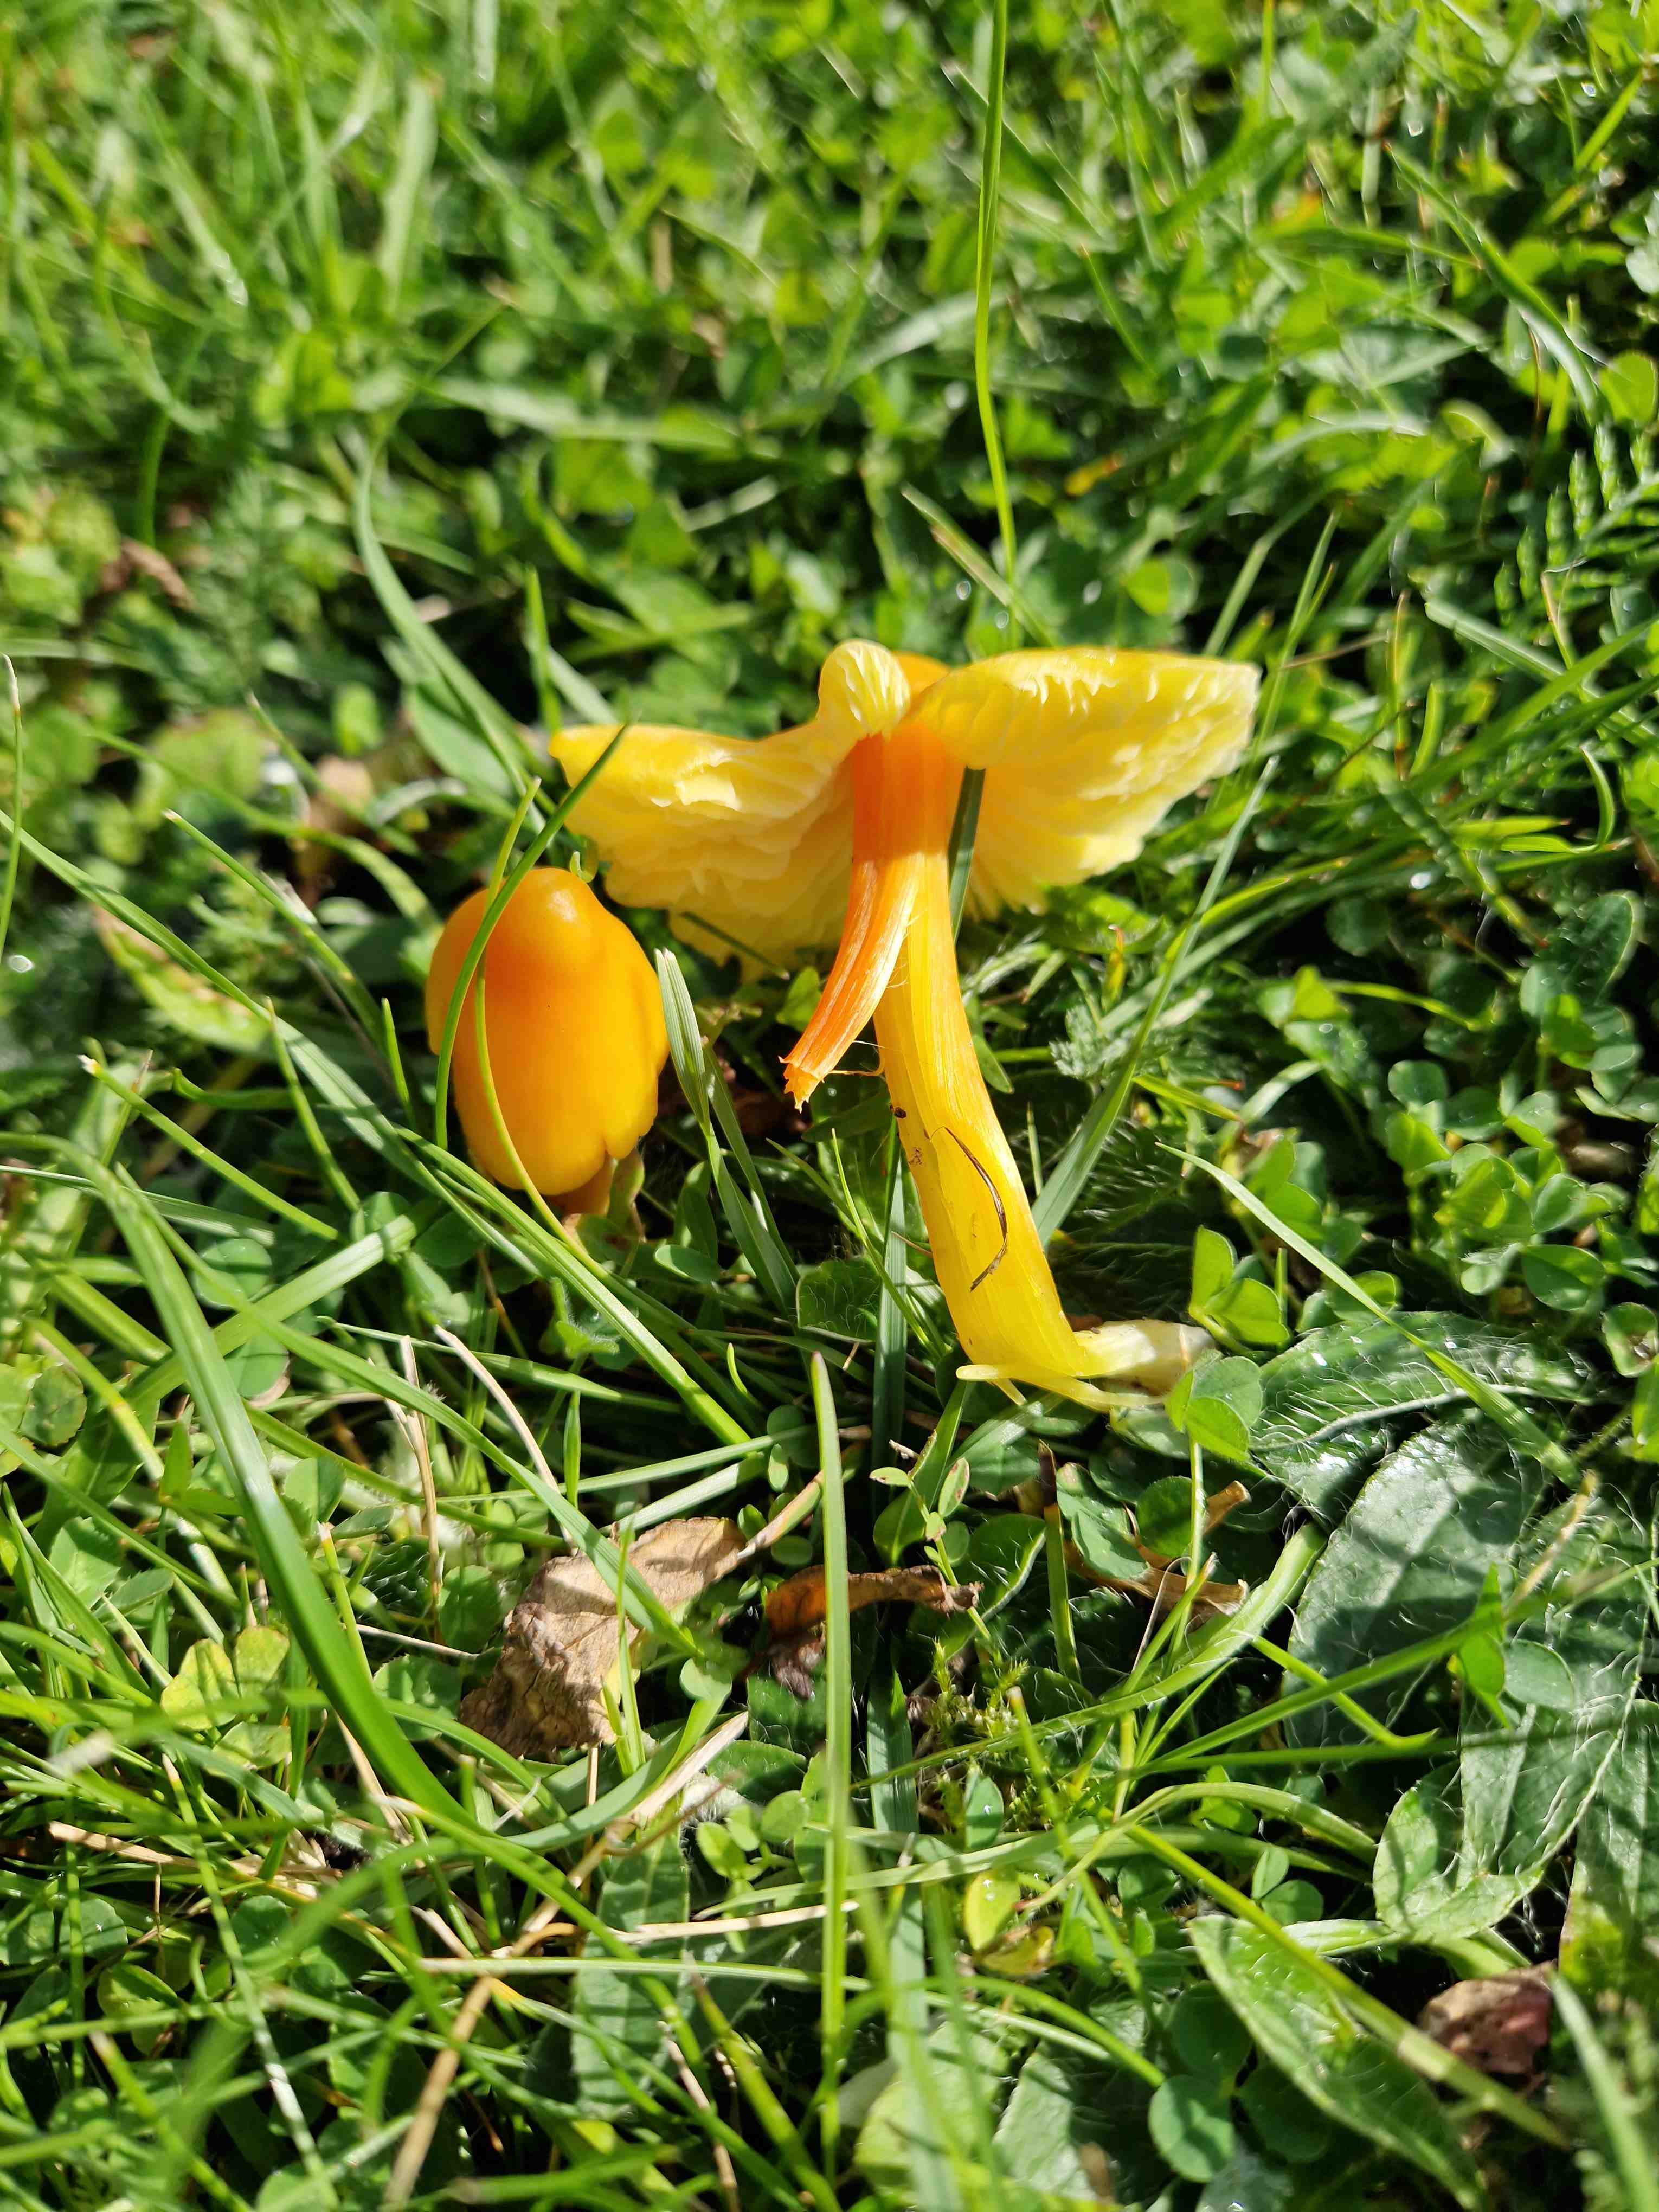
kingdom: Fungi
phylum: Basidiomycota
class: Agaricomycetes
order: Agaricales
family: Hygrophoraceae
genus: Hygrocybe
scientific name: Hygrocybe
